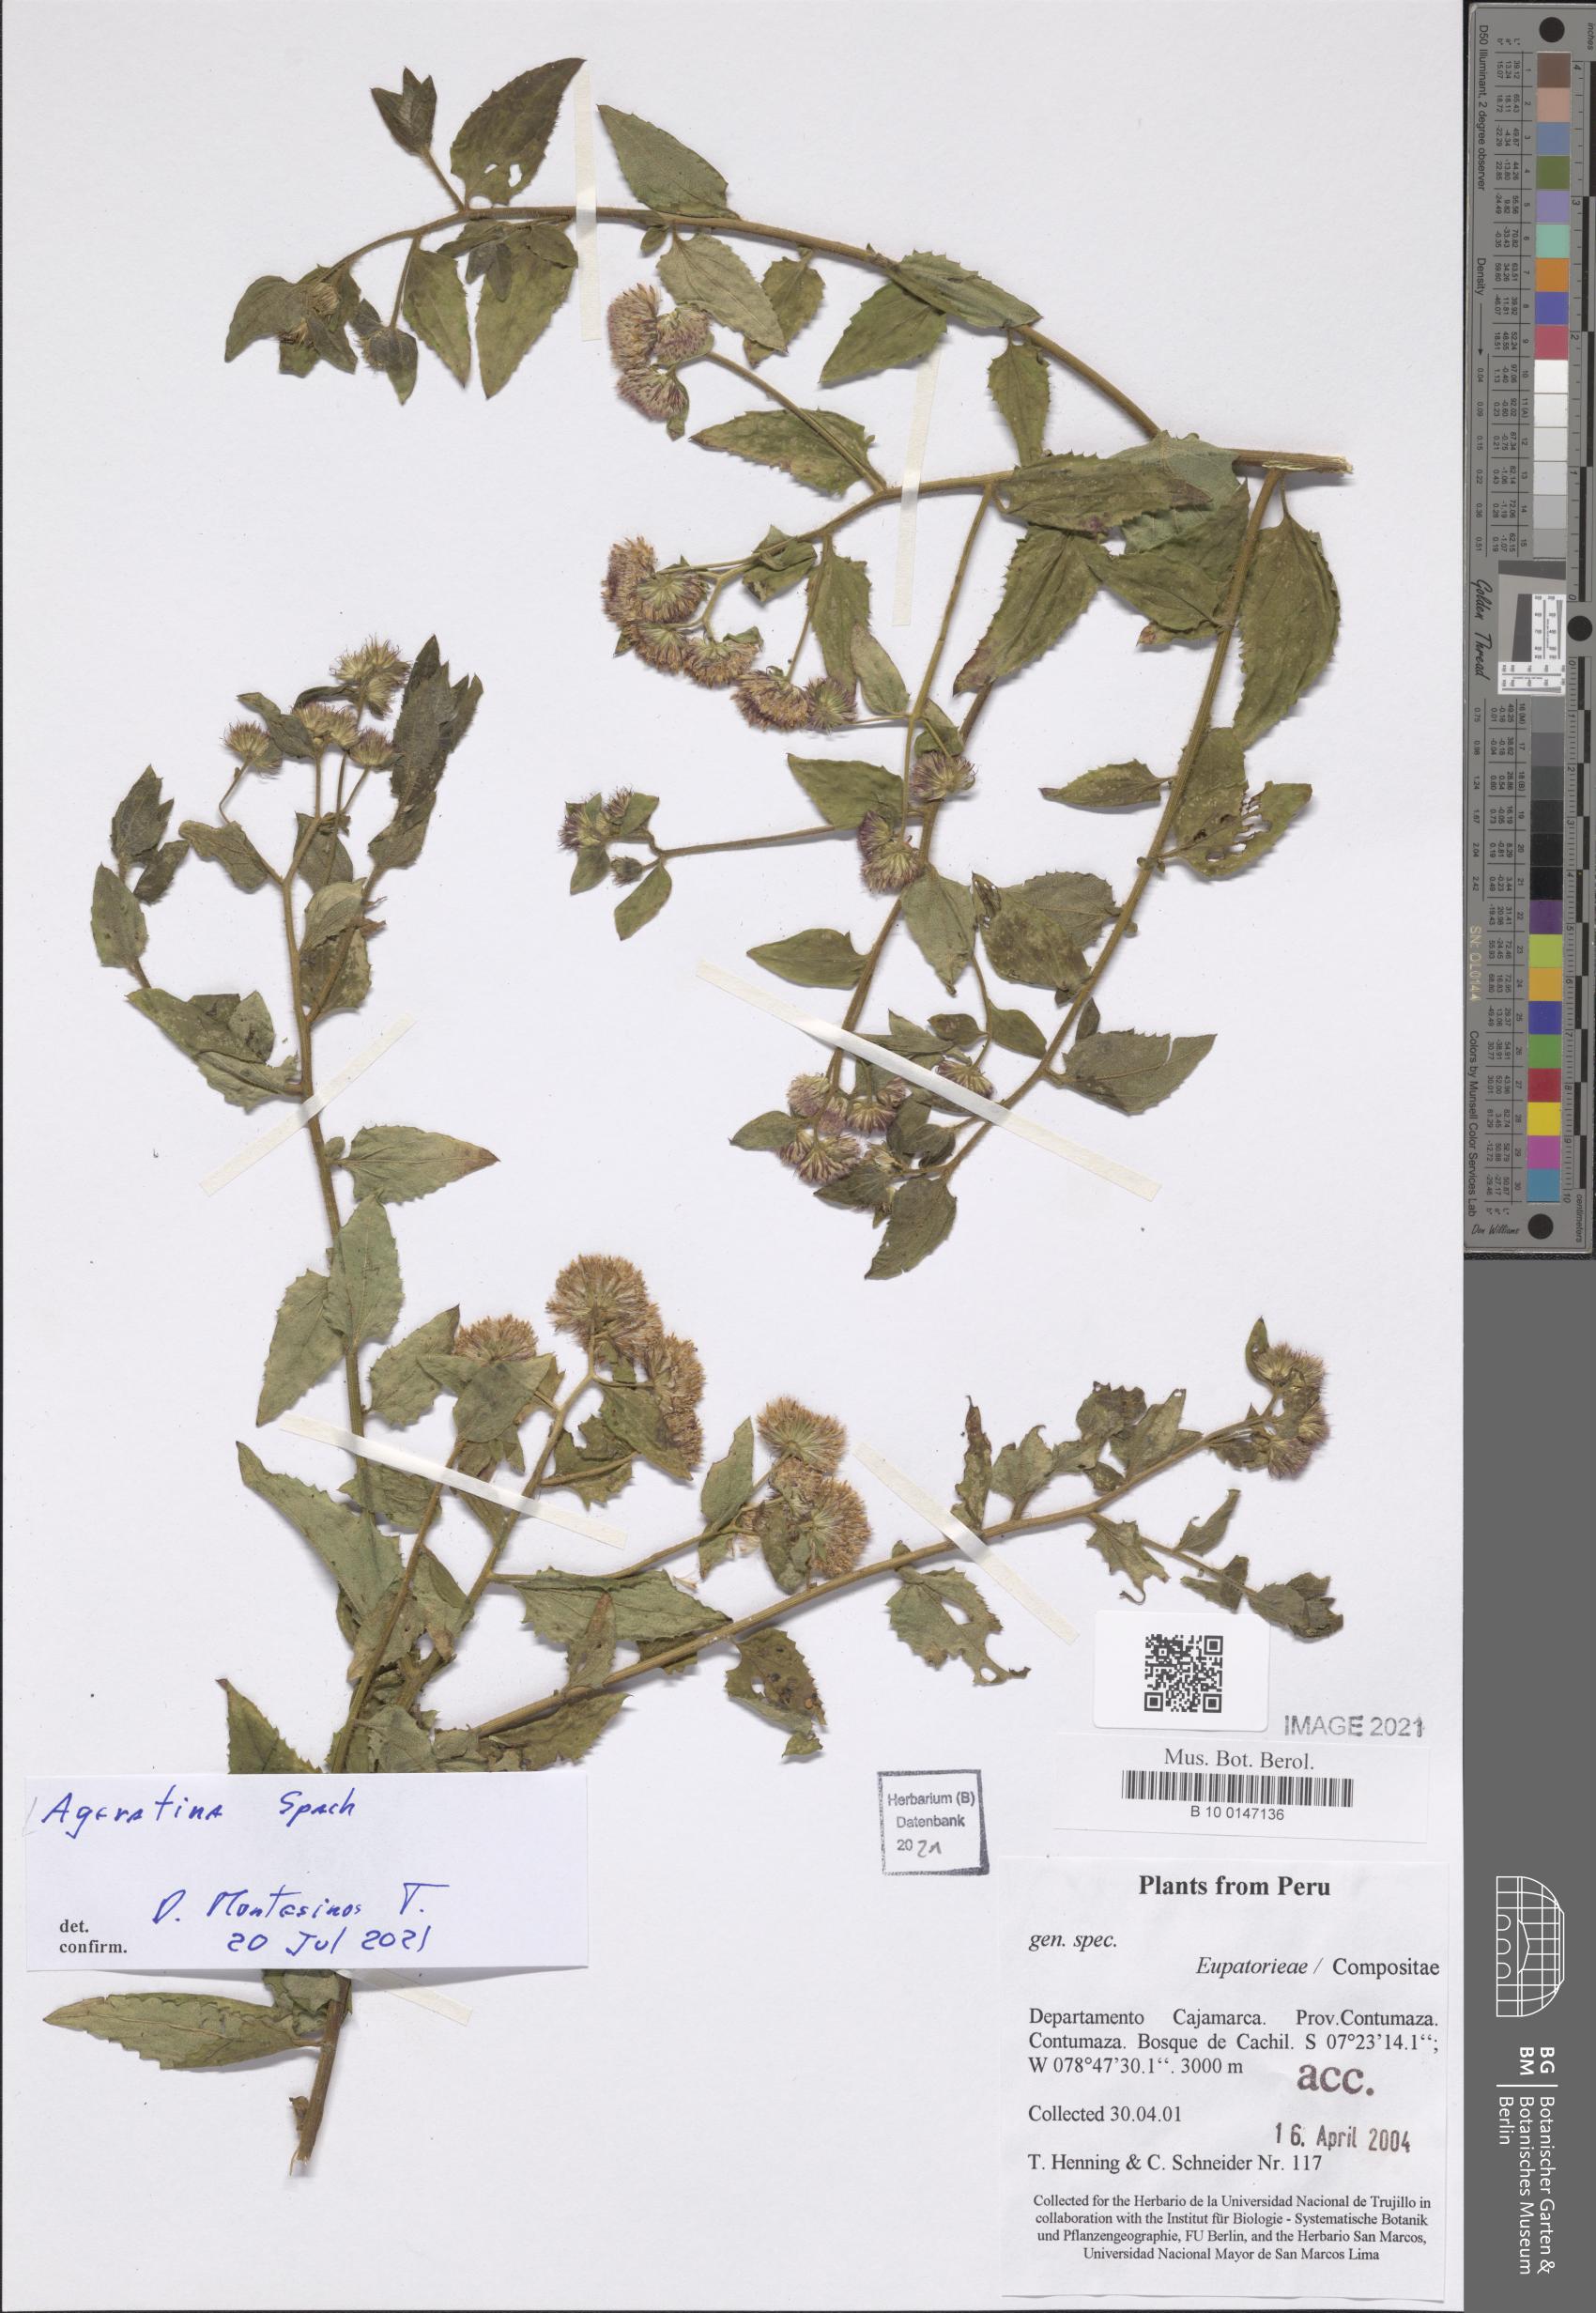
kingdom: Plantae
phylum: Tracheophyta
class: Magnoliopsida
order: Asterales
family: Asteraceae
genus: Ageratina
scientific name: Ageratina
